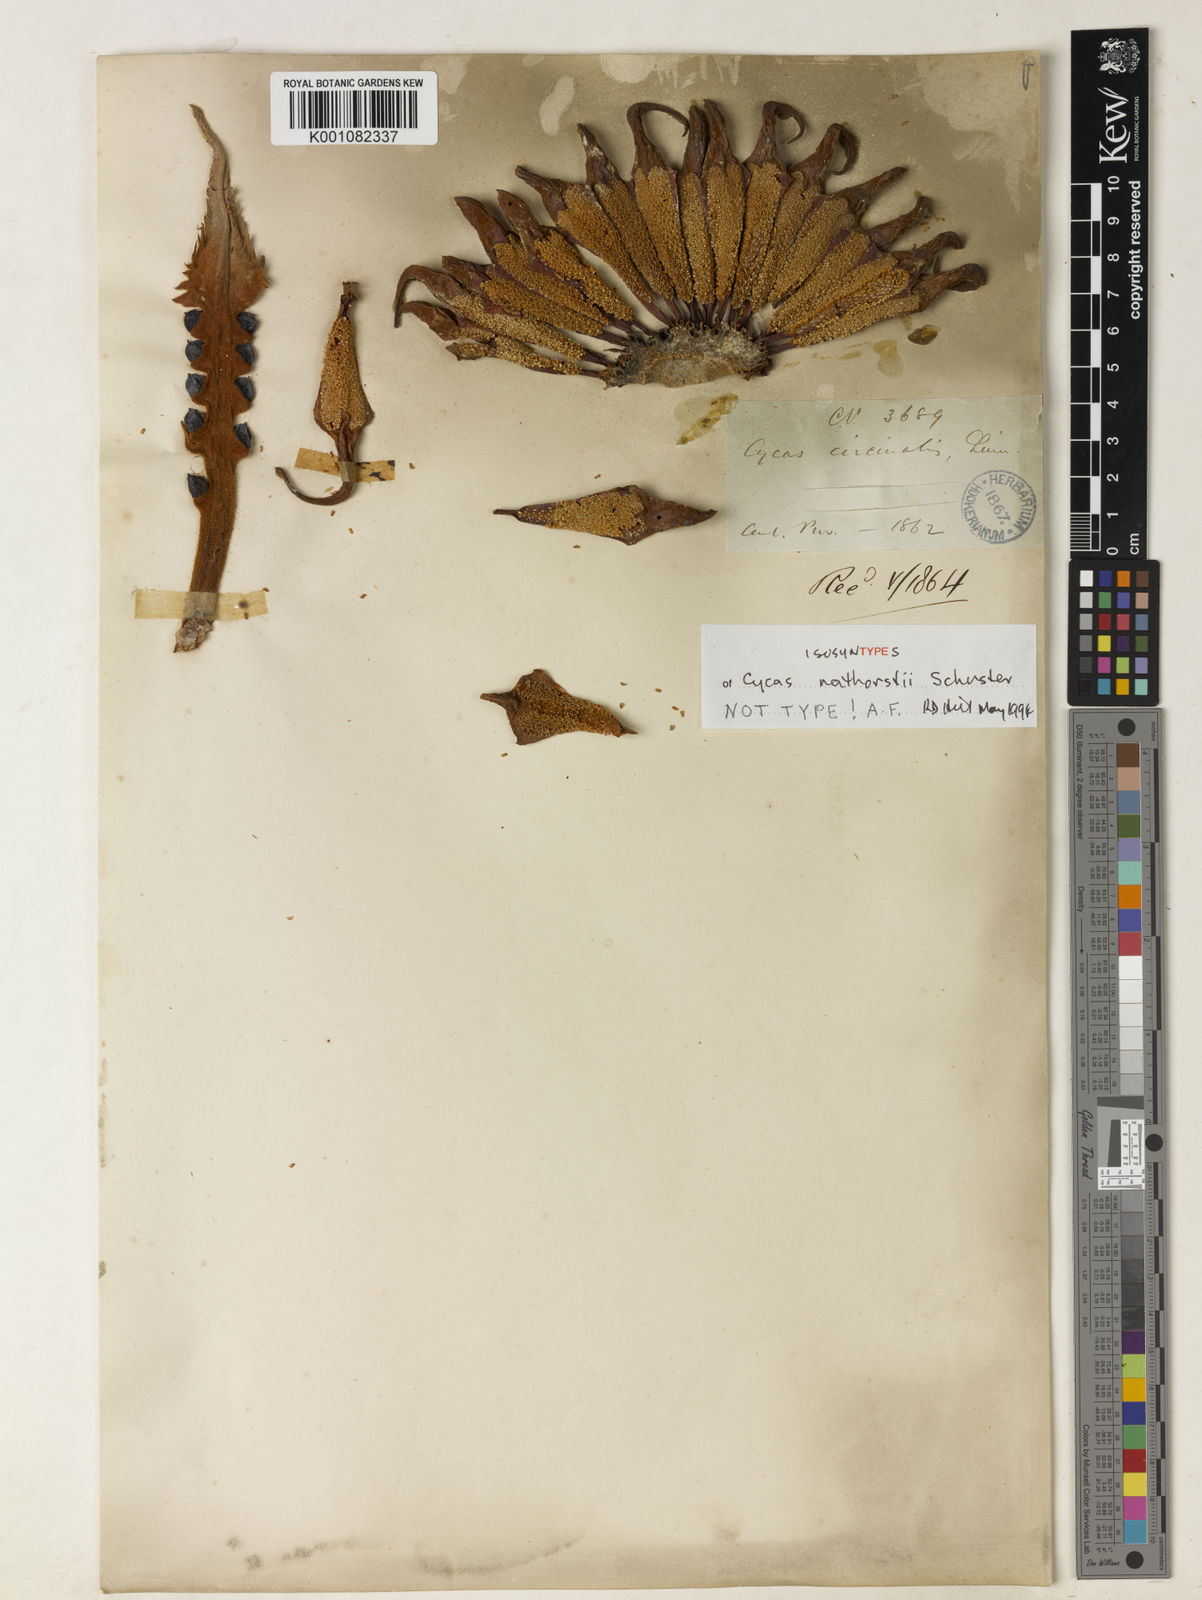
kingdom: Plantae
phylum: Tracheophyta
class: Cycadopsida
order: Cycadales
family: Cycadaceae
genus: Cycas
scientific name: Cycas nathorstii
